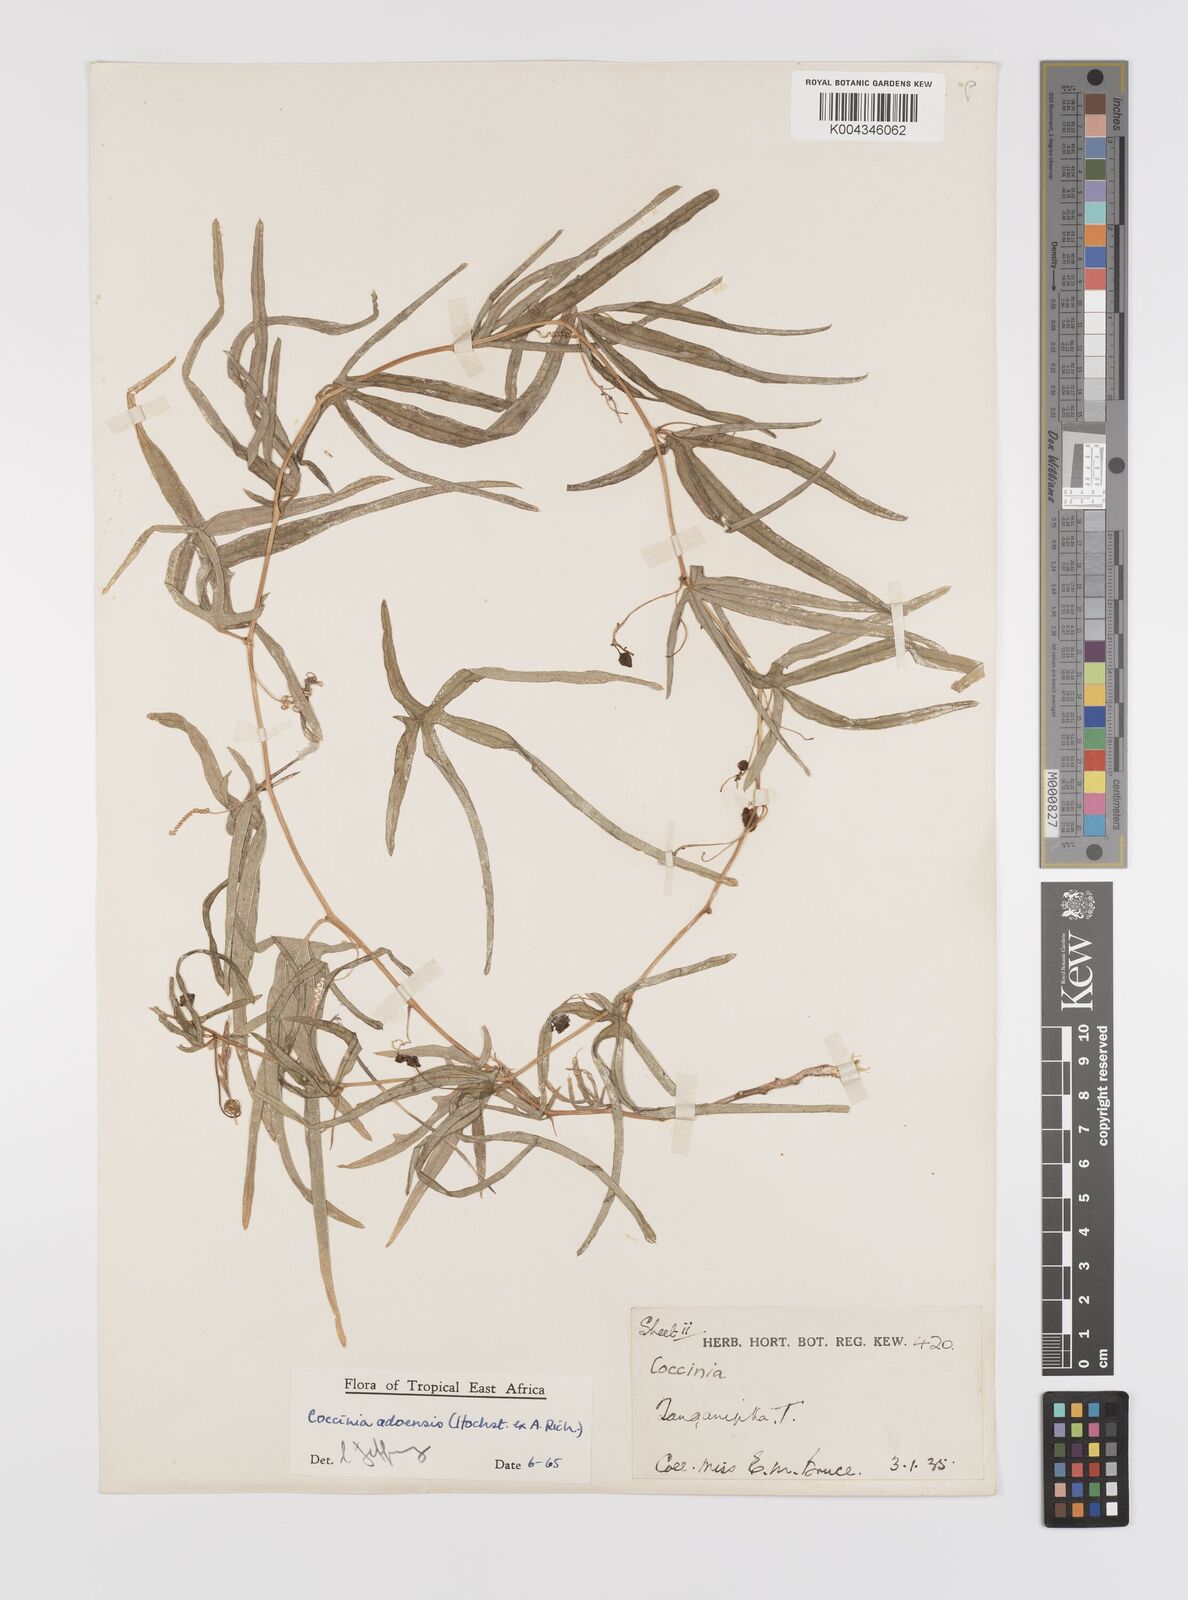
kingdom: Plantae
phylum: Tracheophyta
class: Magnoliopsida
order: Cucurbitales
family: Cucurbitaceae
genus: Coccinia
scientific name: Coccinia adoensis
